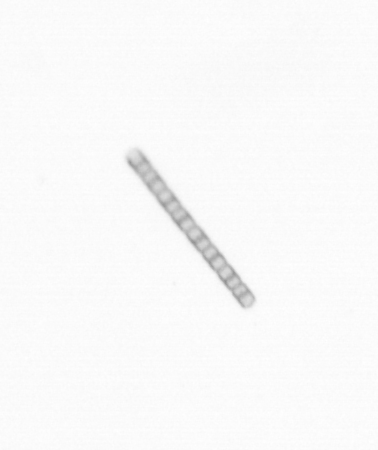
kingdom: Chromista
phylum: Ochrophyta
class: Bacillariophyceae
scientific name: Bacillariophyceae
